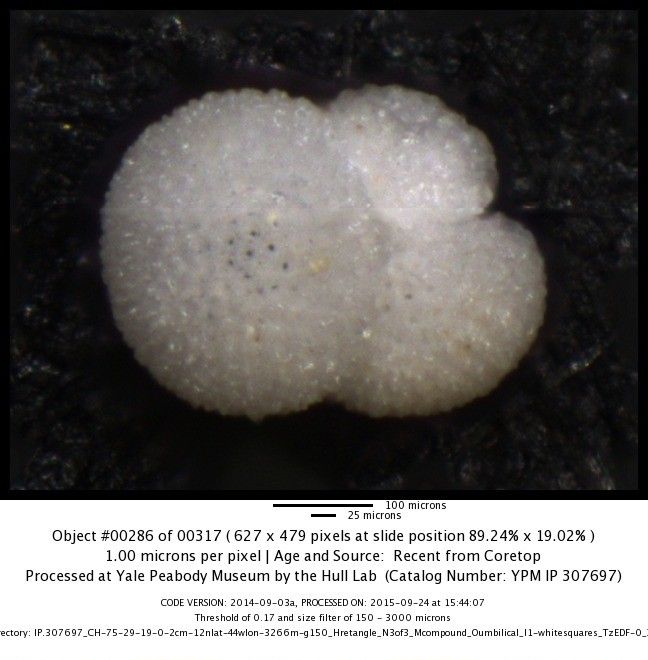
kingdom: Chromista
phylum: Foraminifera
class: Globothalamea
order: Rotaliida
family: Globigerinidae
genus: Globigerinoides
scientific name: Globigerinoides sacculifer
